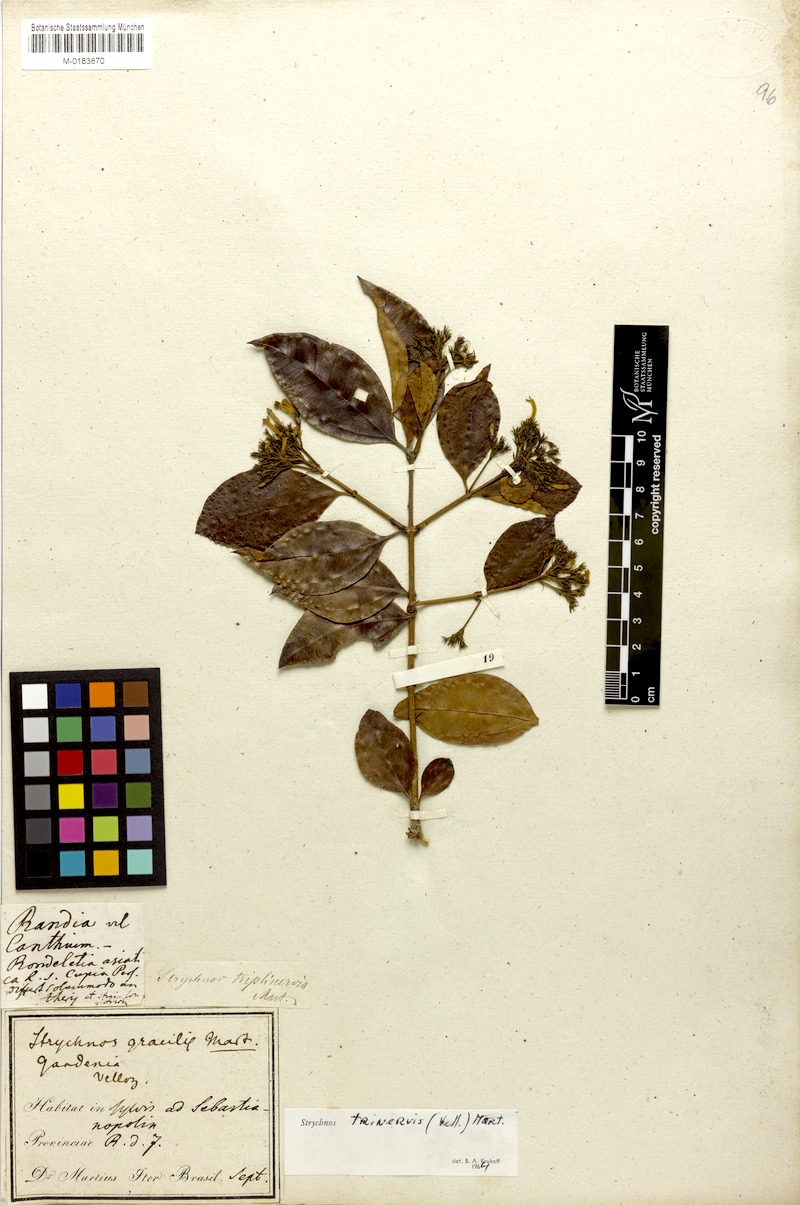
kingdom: Plantae
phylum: Tracheophyta
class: Magnoliopsida
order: Gentianales
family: Loganiaceae
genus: Strychnos
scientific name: Strychnos trinervis
